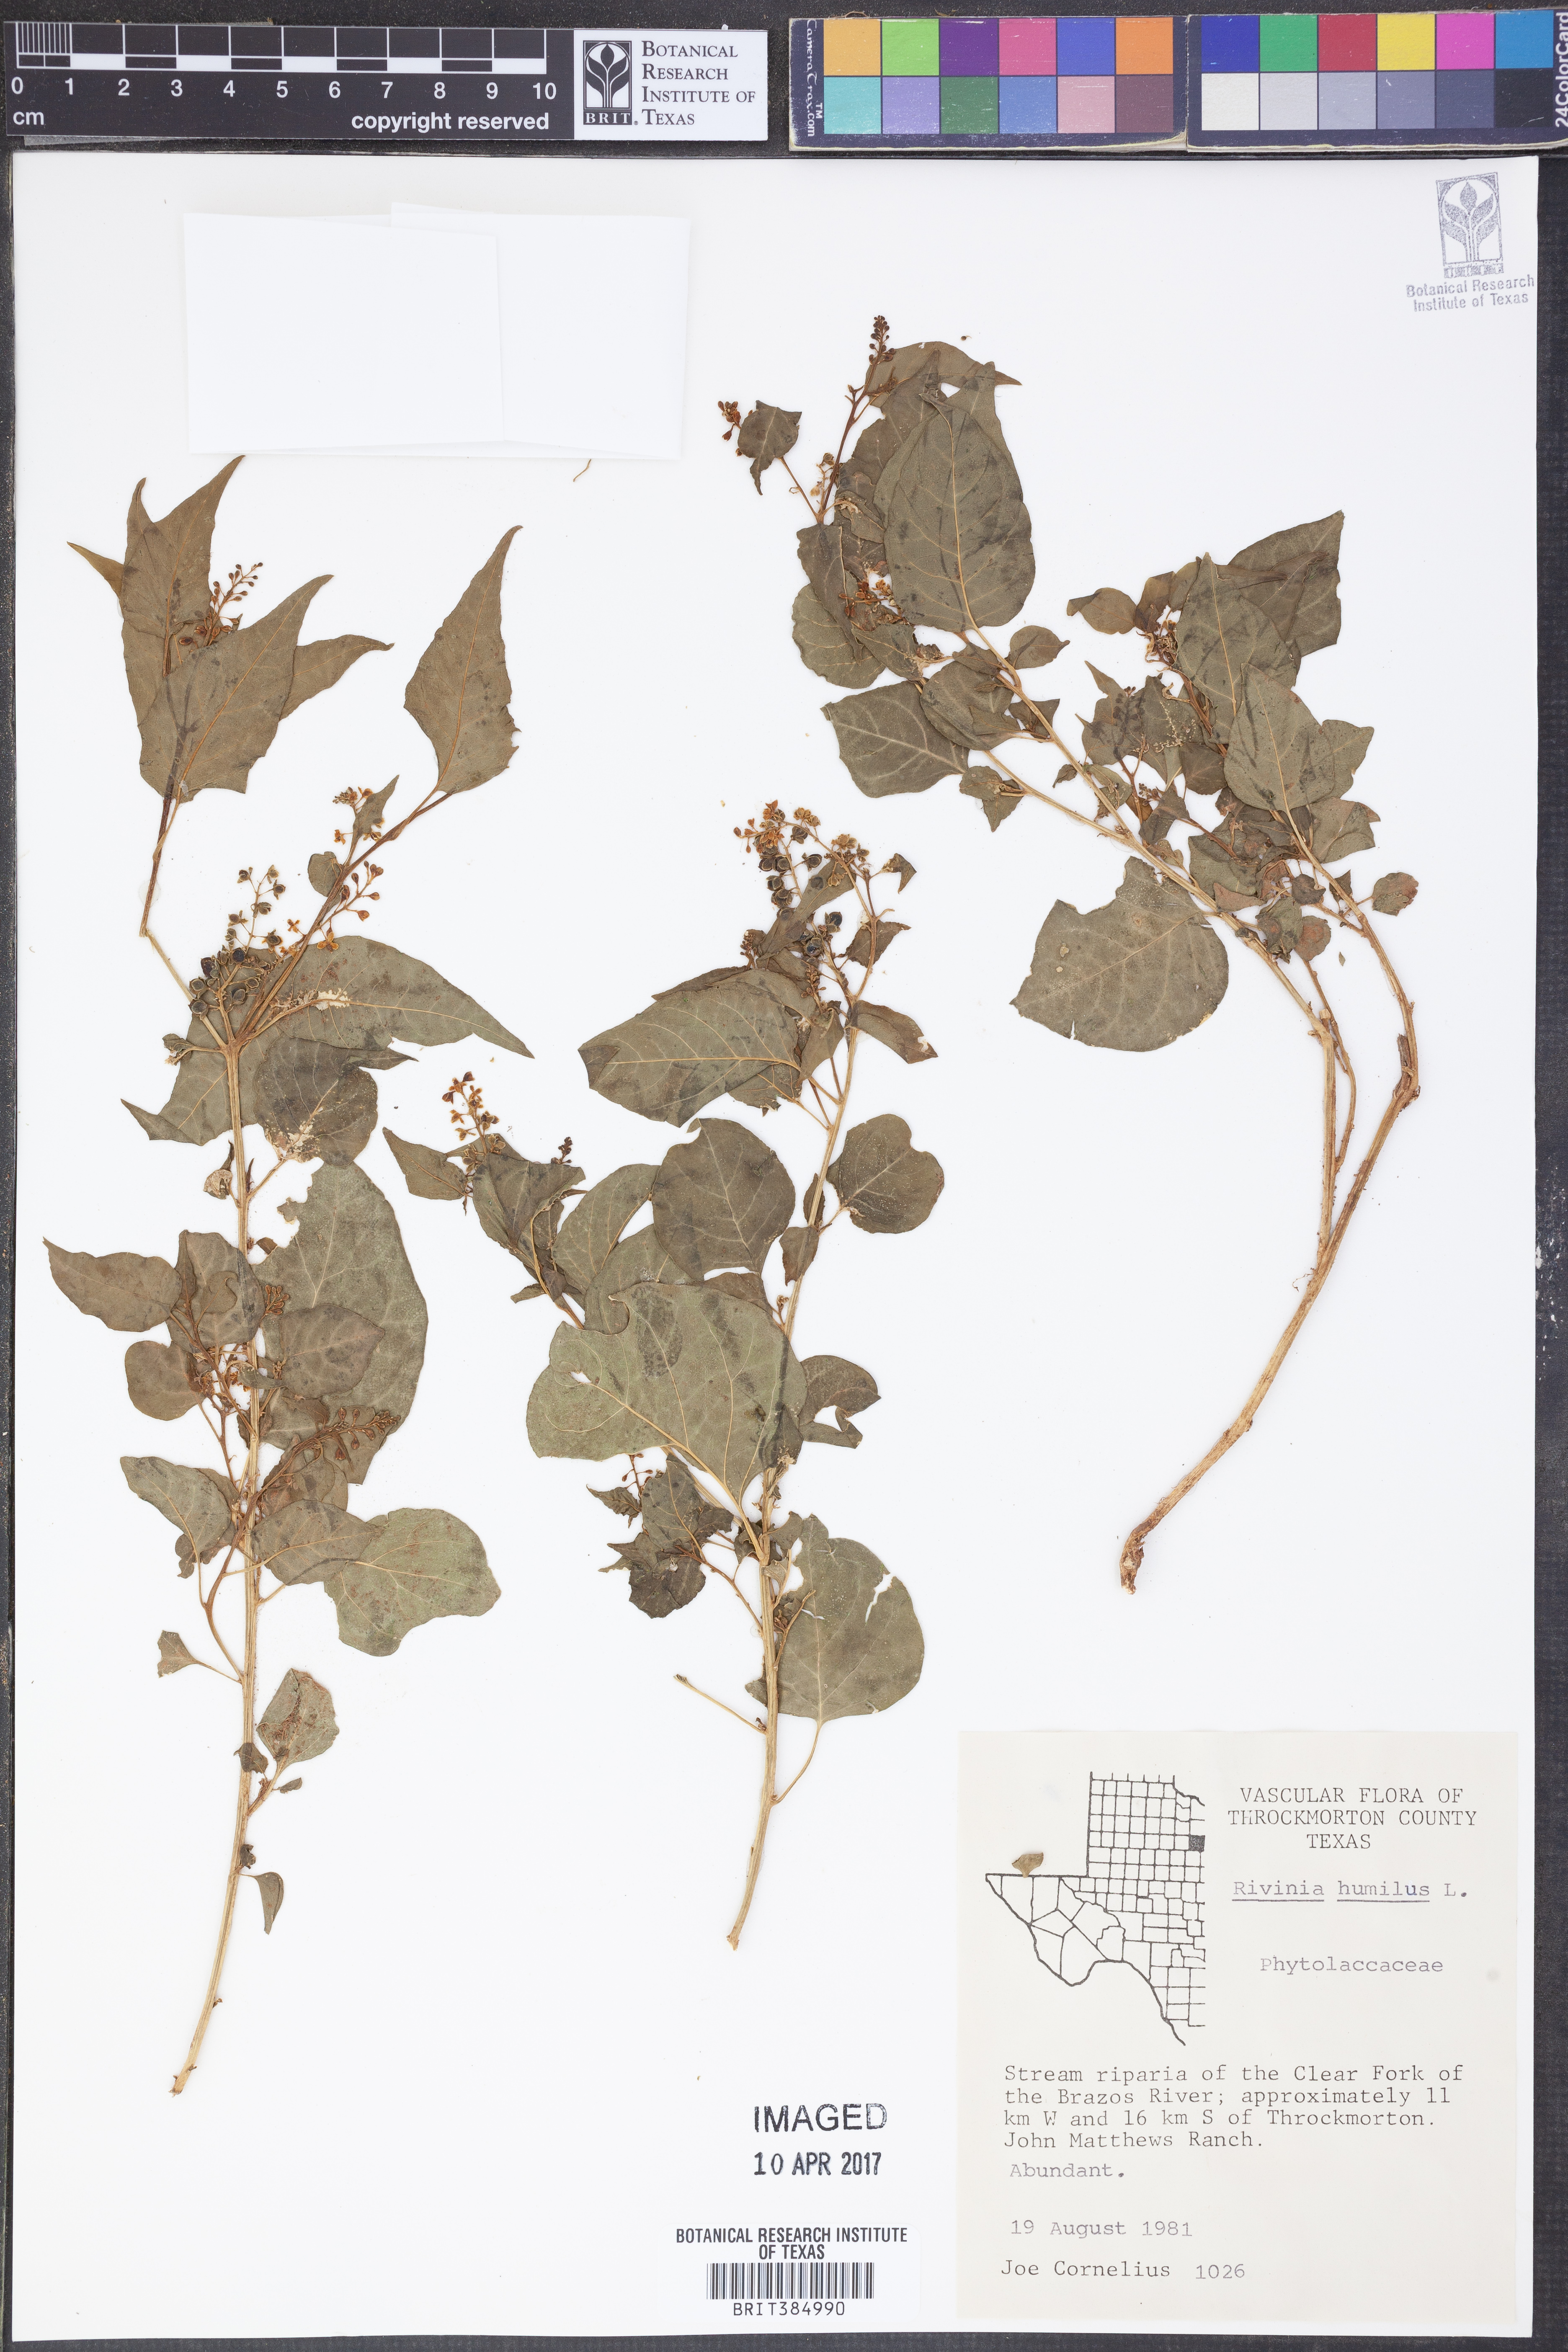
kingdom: Plantae
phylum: Tracheophyta
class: Magnoliopsida
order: Caryophyllales
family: Phytolaccaceae
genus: Rivina
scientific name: Rivina humilis
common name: Rougeplant
